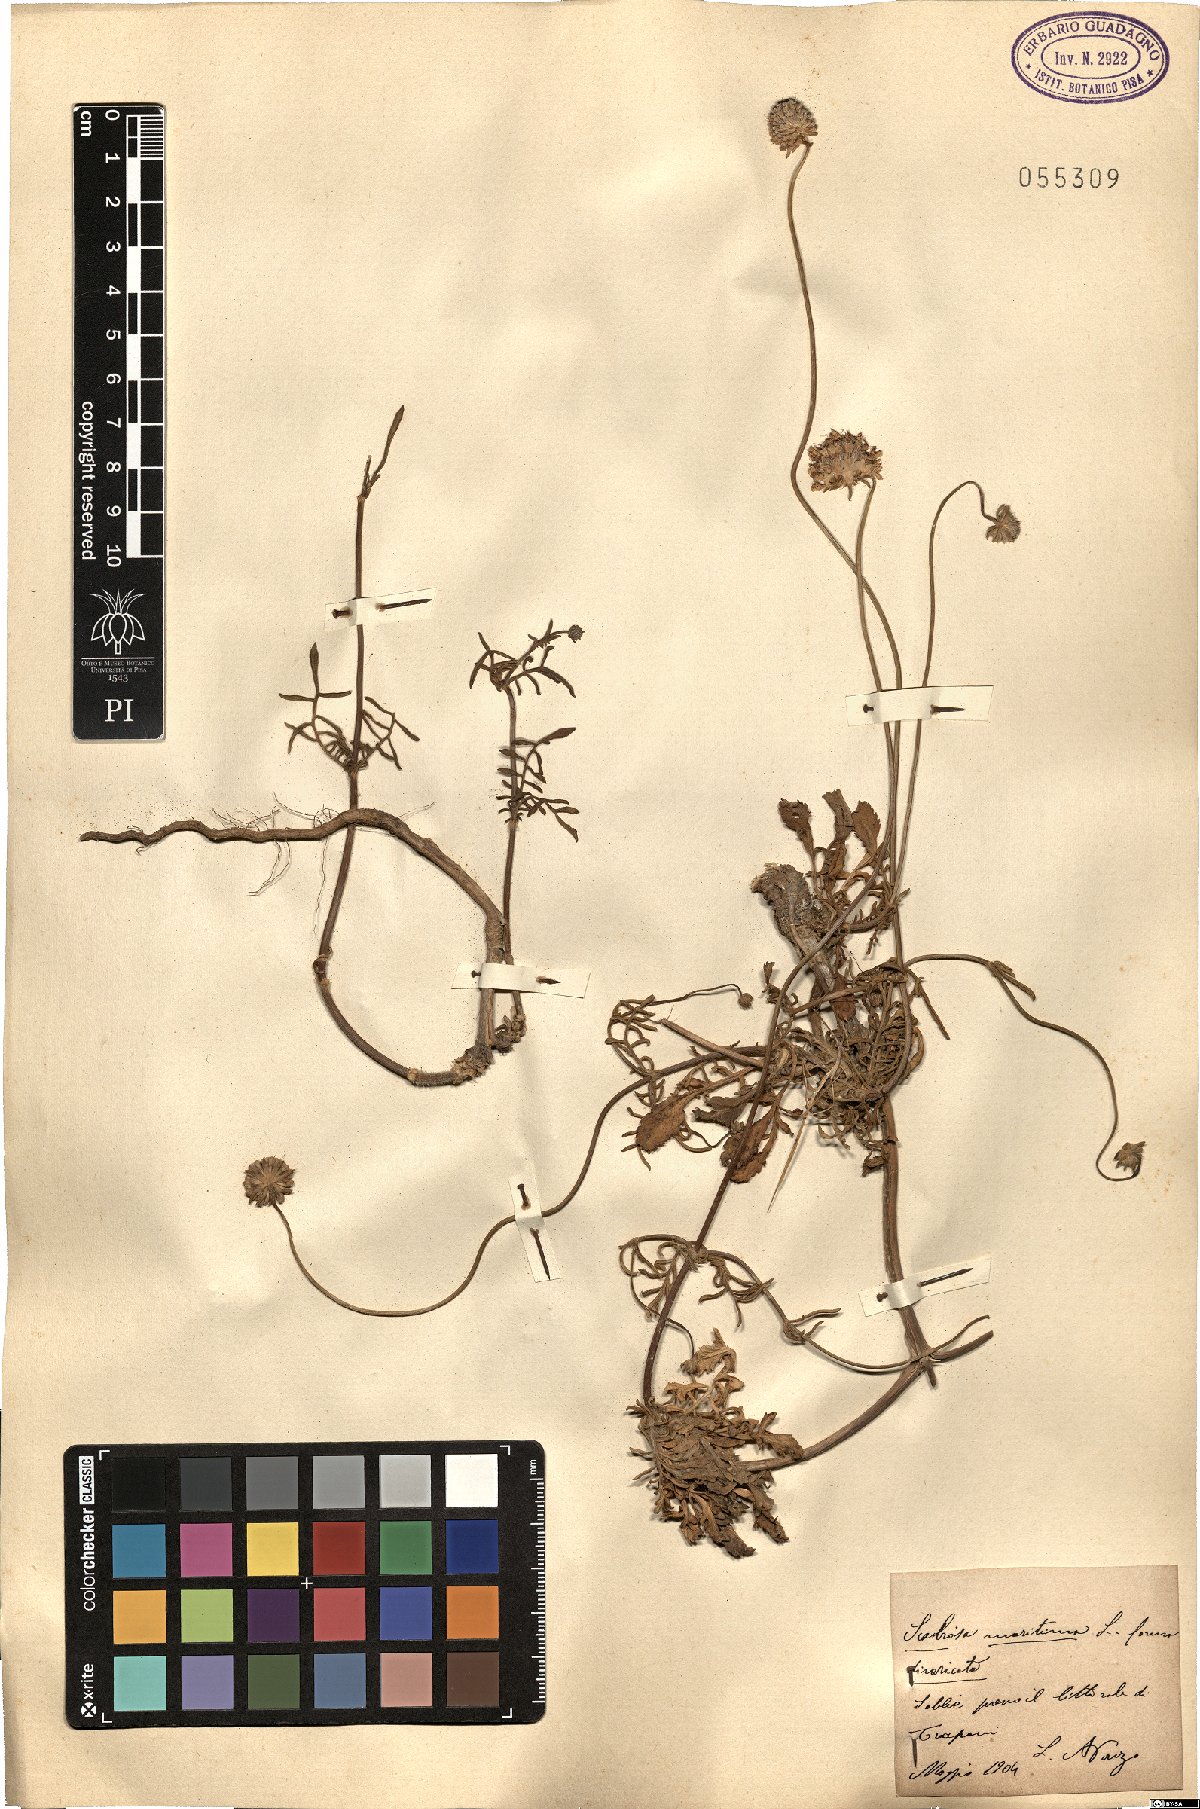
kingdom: Plantae
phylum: Tracheophyta
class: Magnoliopsida
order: Dipsacales
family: Caprifoliaceae
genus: Sixalix
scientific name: Sixalix maritima
